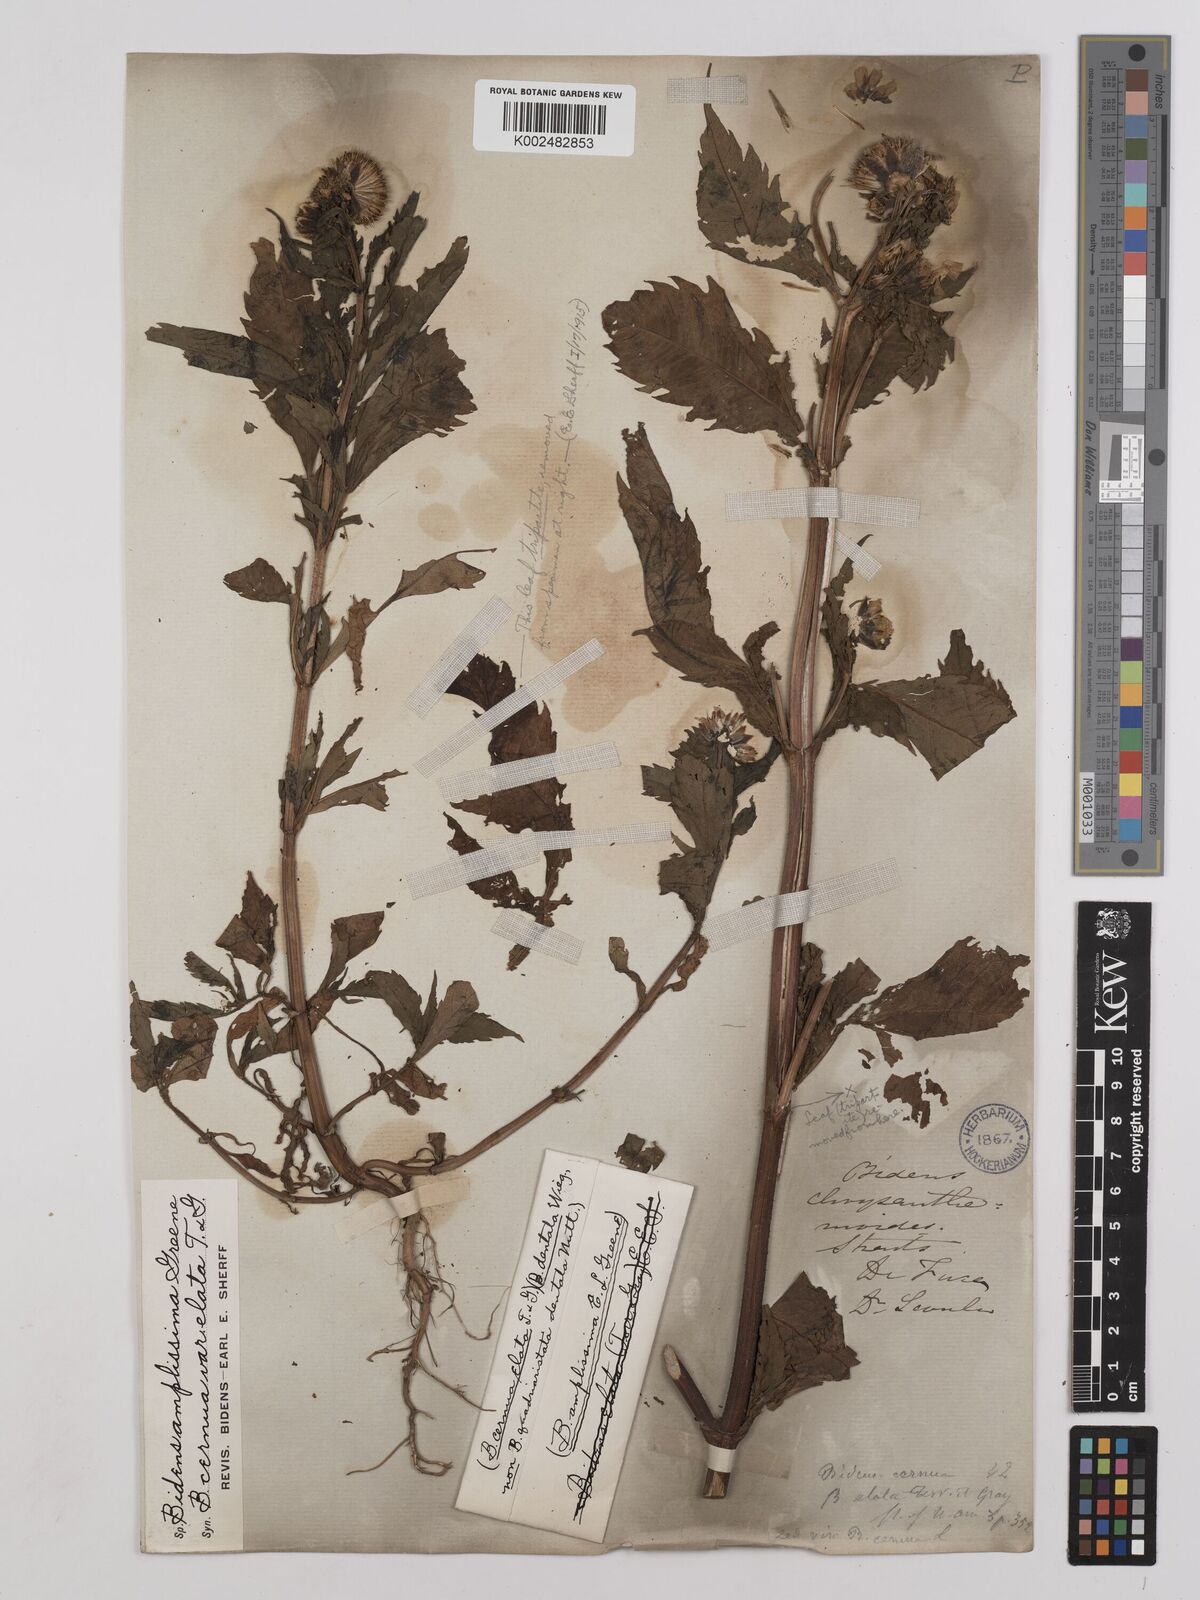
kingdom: Plantae
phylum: Tracheophyta
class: Magnoliopsida
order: Asterales
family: Asteraceae
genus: Bidens
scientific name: Bidens amplissima
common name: Vancouver island beggarticks
